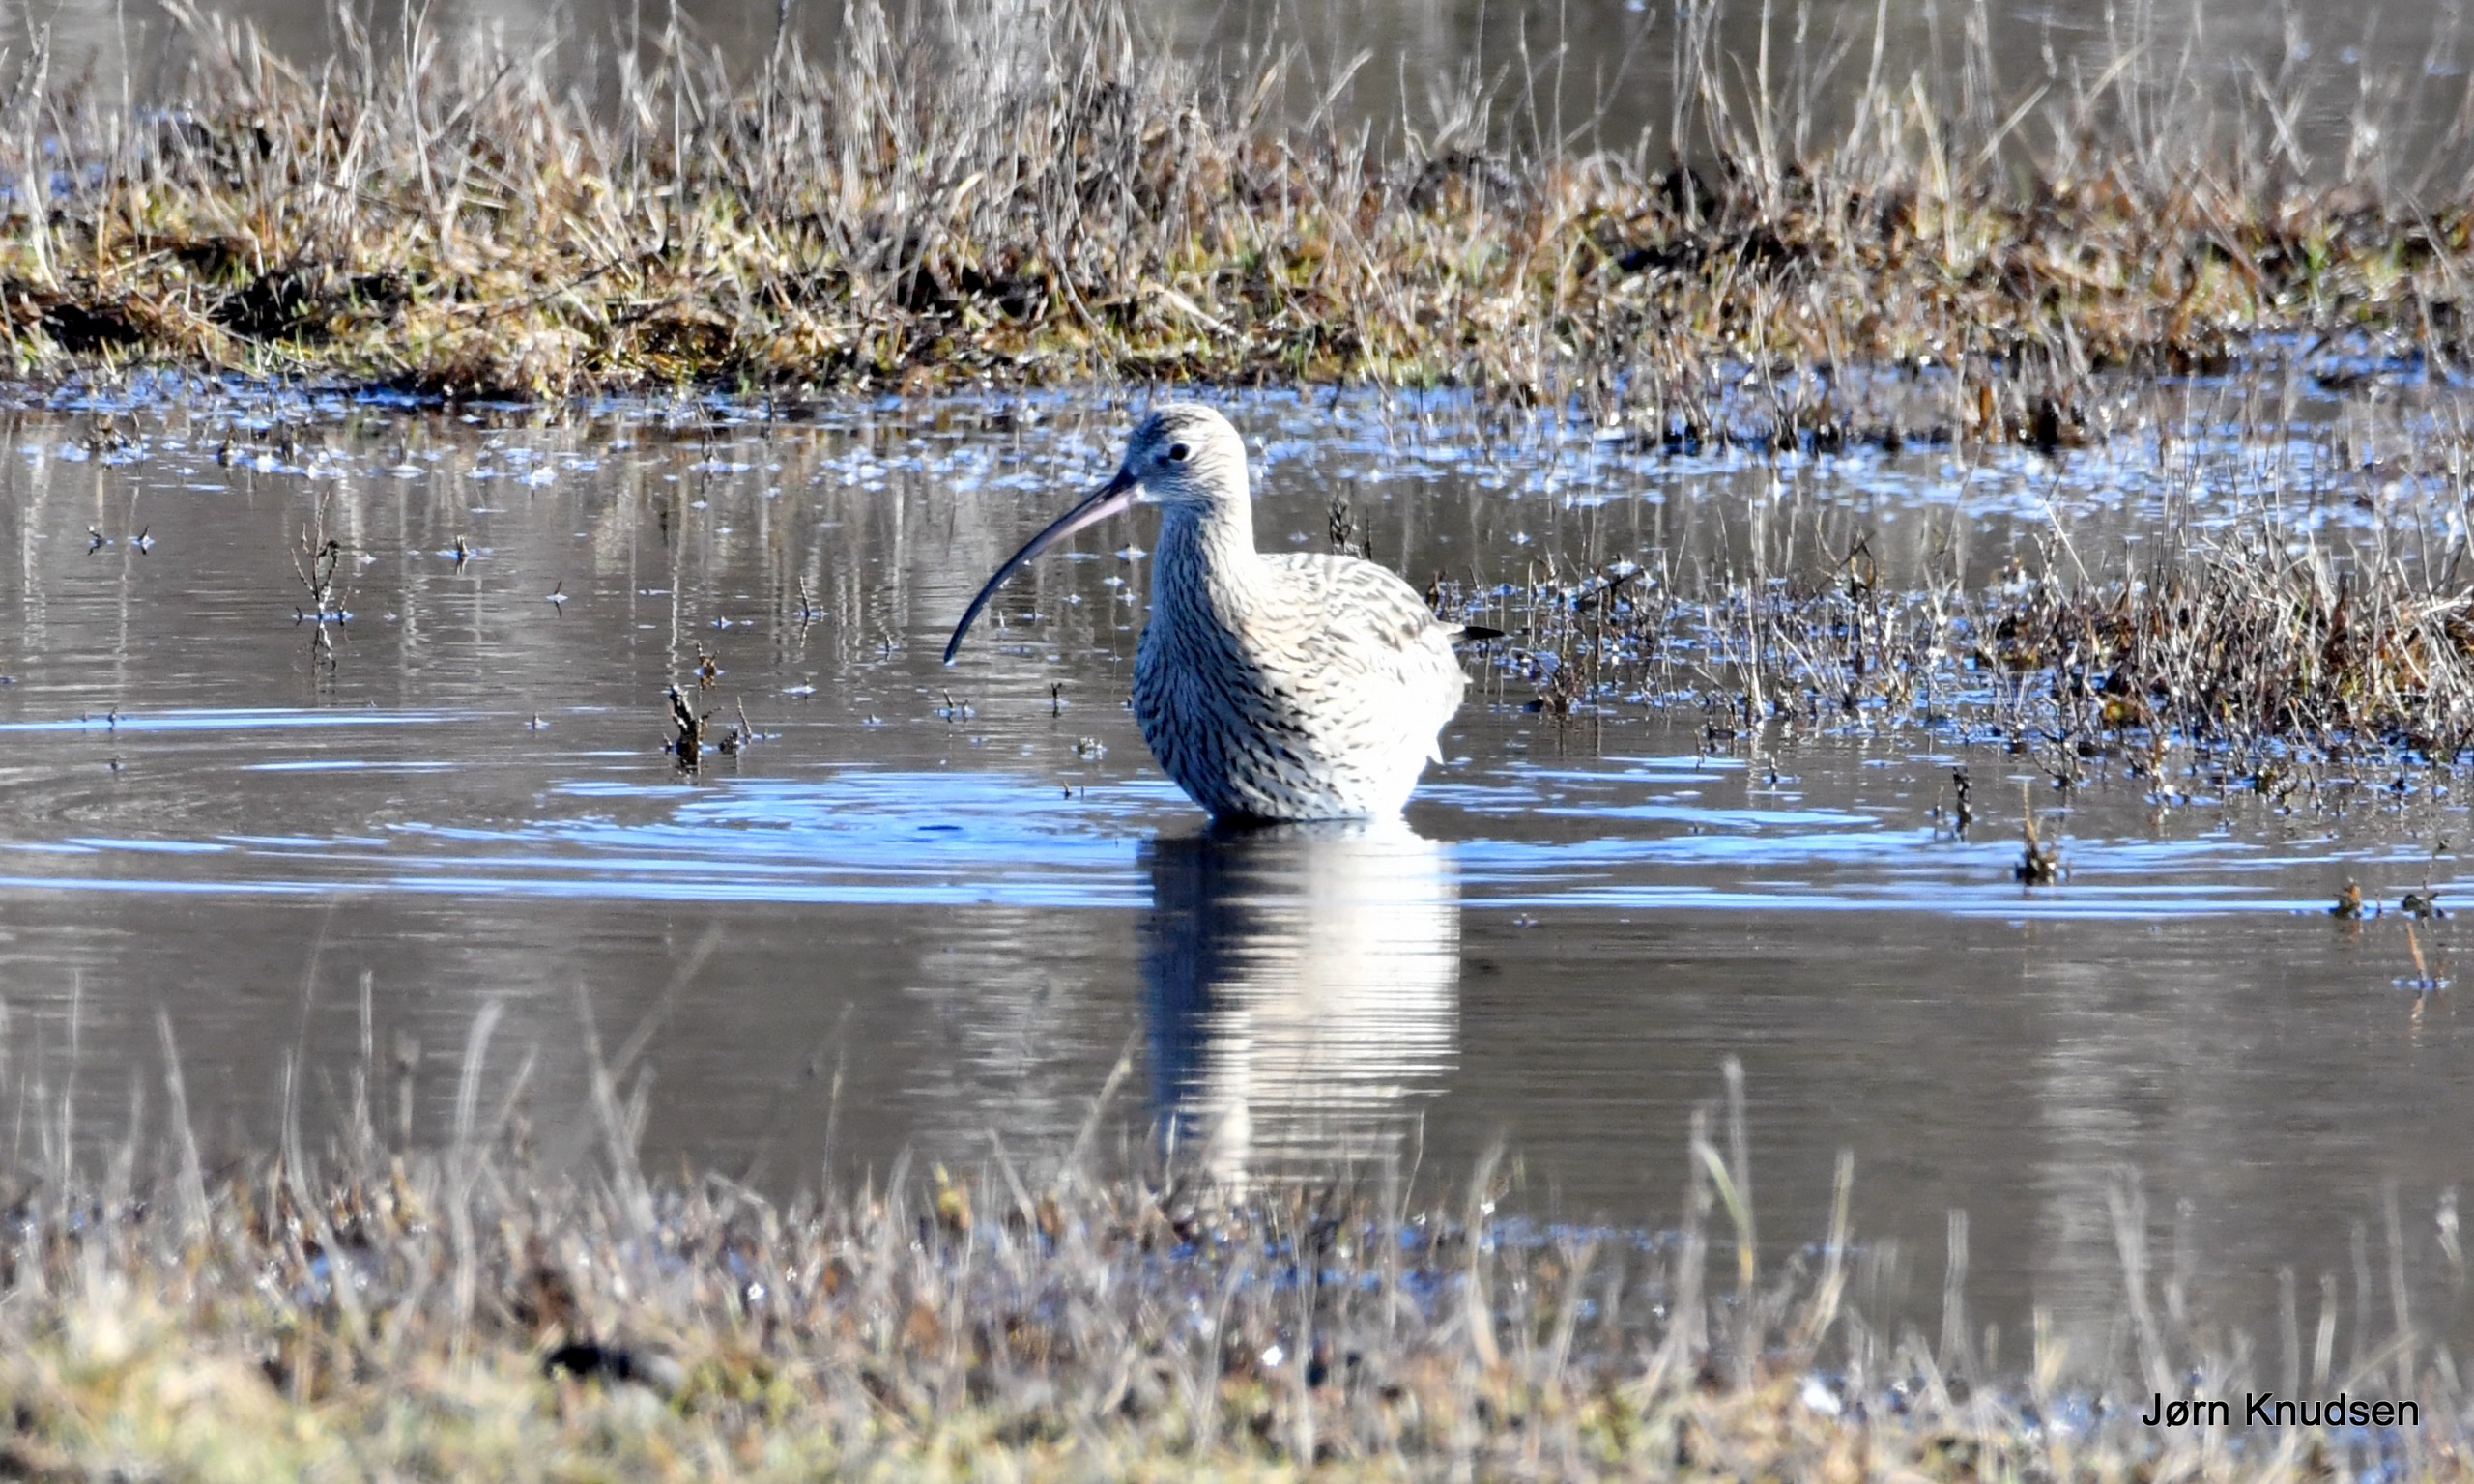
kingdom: Animalia
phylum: Chordata
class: Aves
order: Charadriiformes
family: Scolopacidae
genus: Numenius
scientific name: Numenius arquata
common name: Storspove
